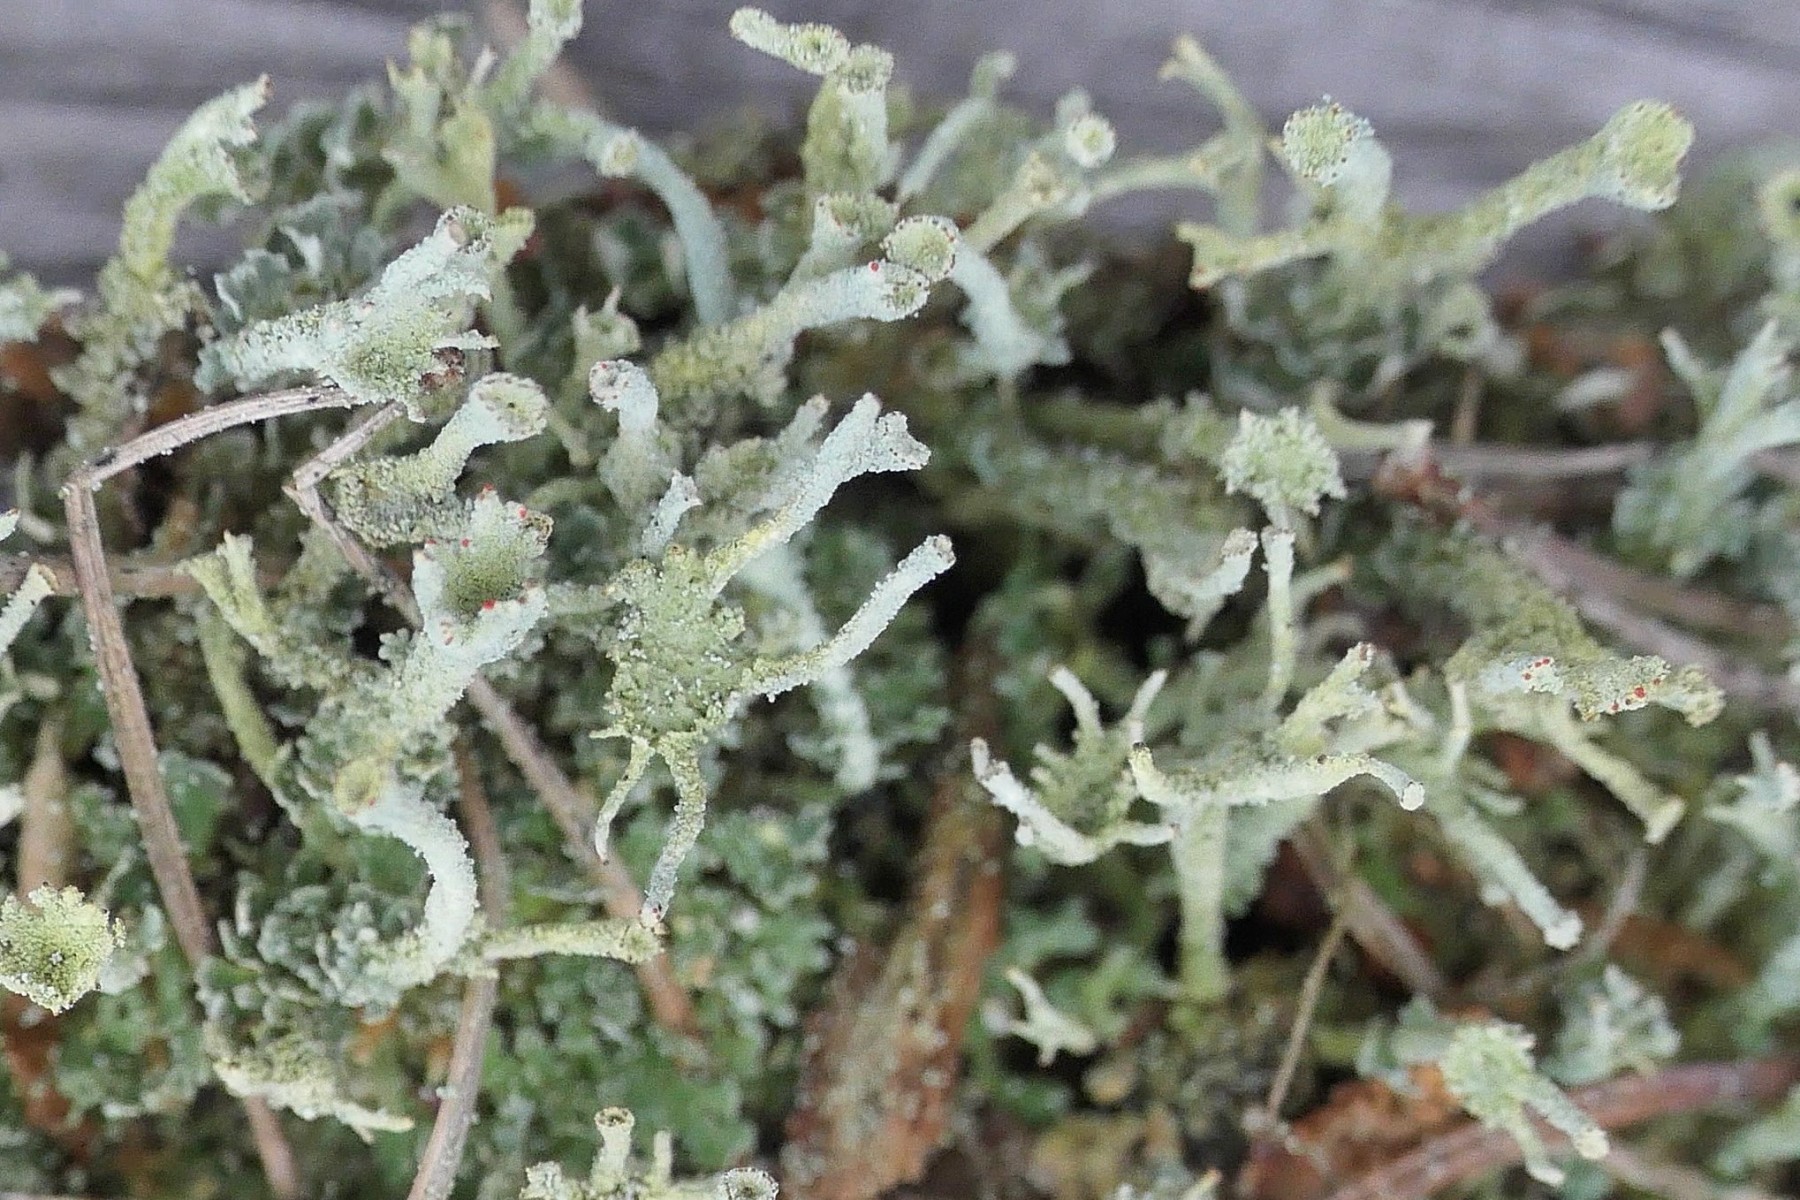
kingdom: Fungi
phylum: Ascomycota
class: Lecanoromycetes
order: Lecanorales
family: Cladoniaceae
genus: Cladonia
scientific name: Cladonia polydactyla
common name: vifte-bægerlav
